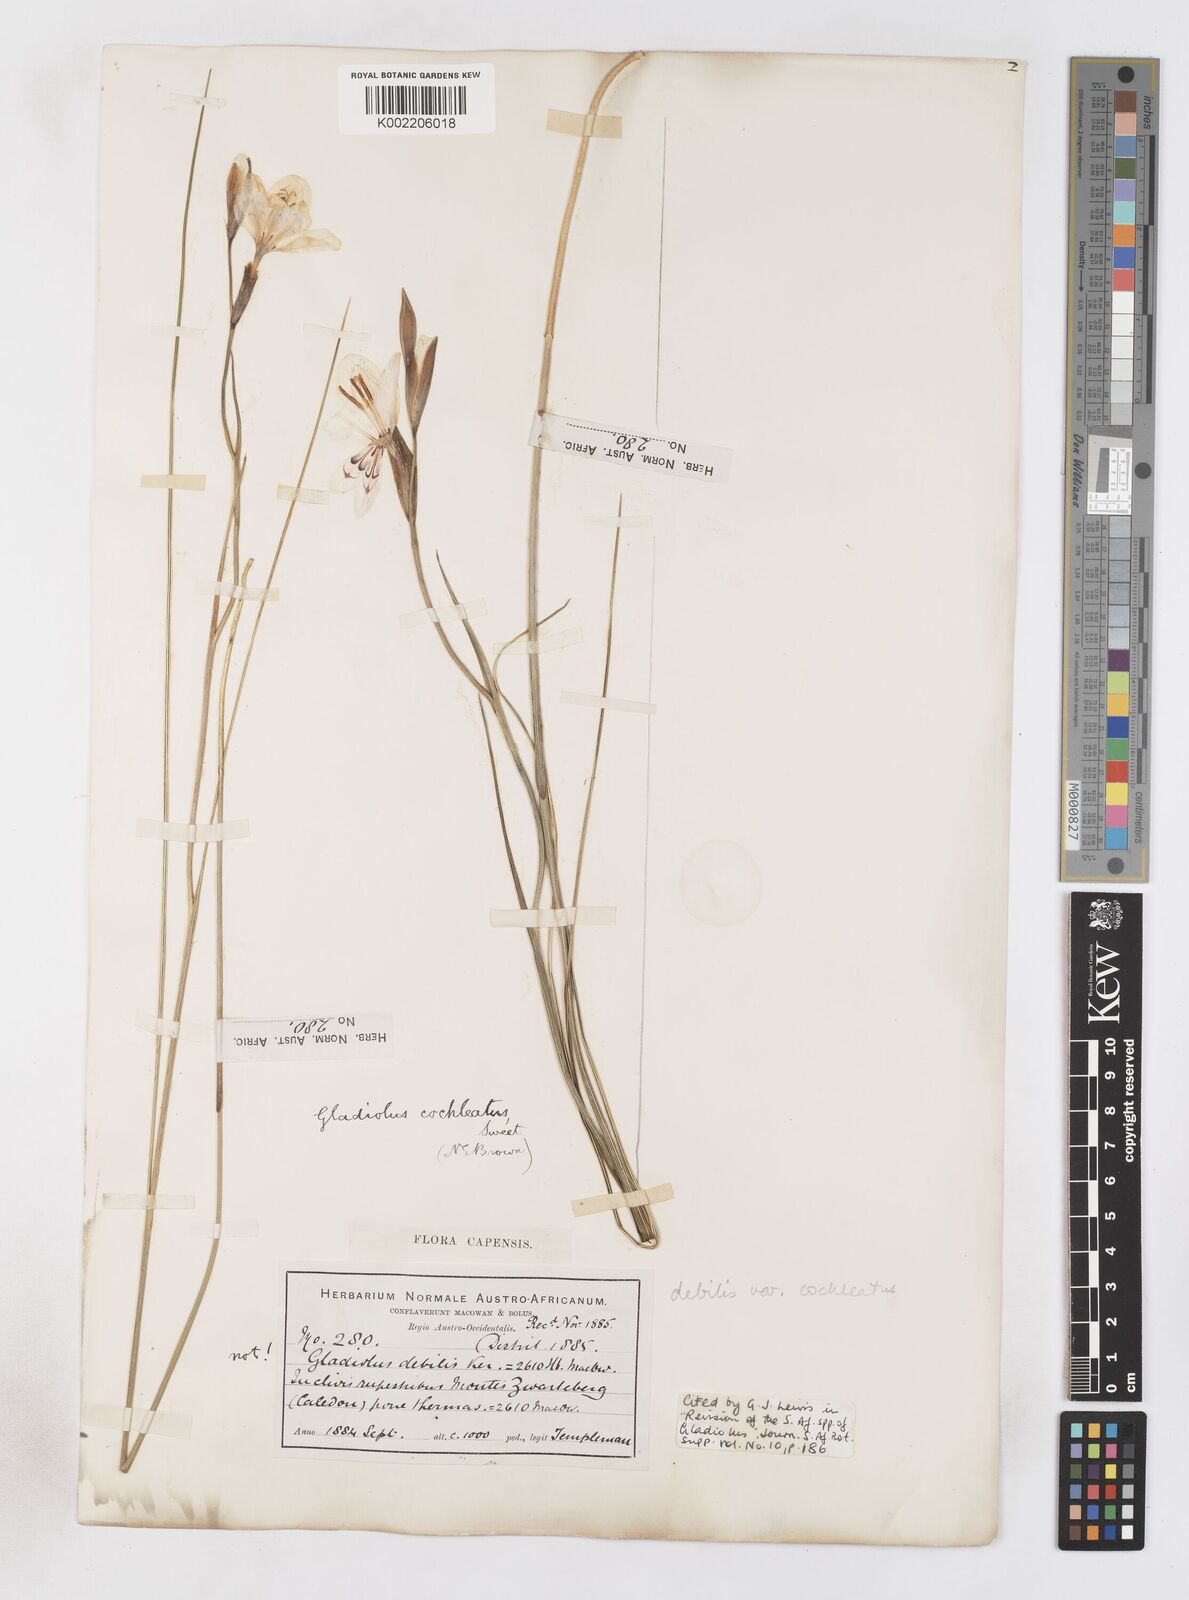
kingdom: Plantae
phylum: Tracheophyta
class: Liliopsida
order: Asparagales
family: Iridaceae
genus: Gladiolus
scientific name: Gladiolus debilis
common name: Painted-lady
